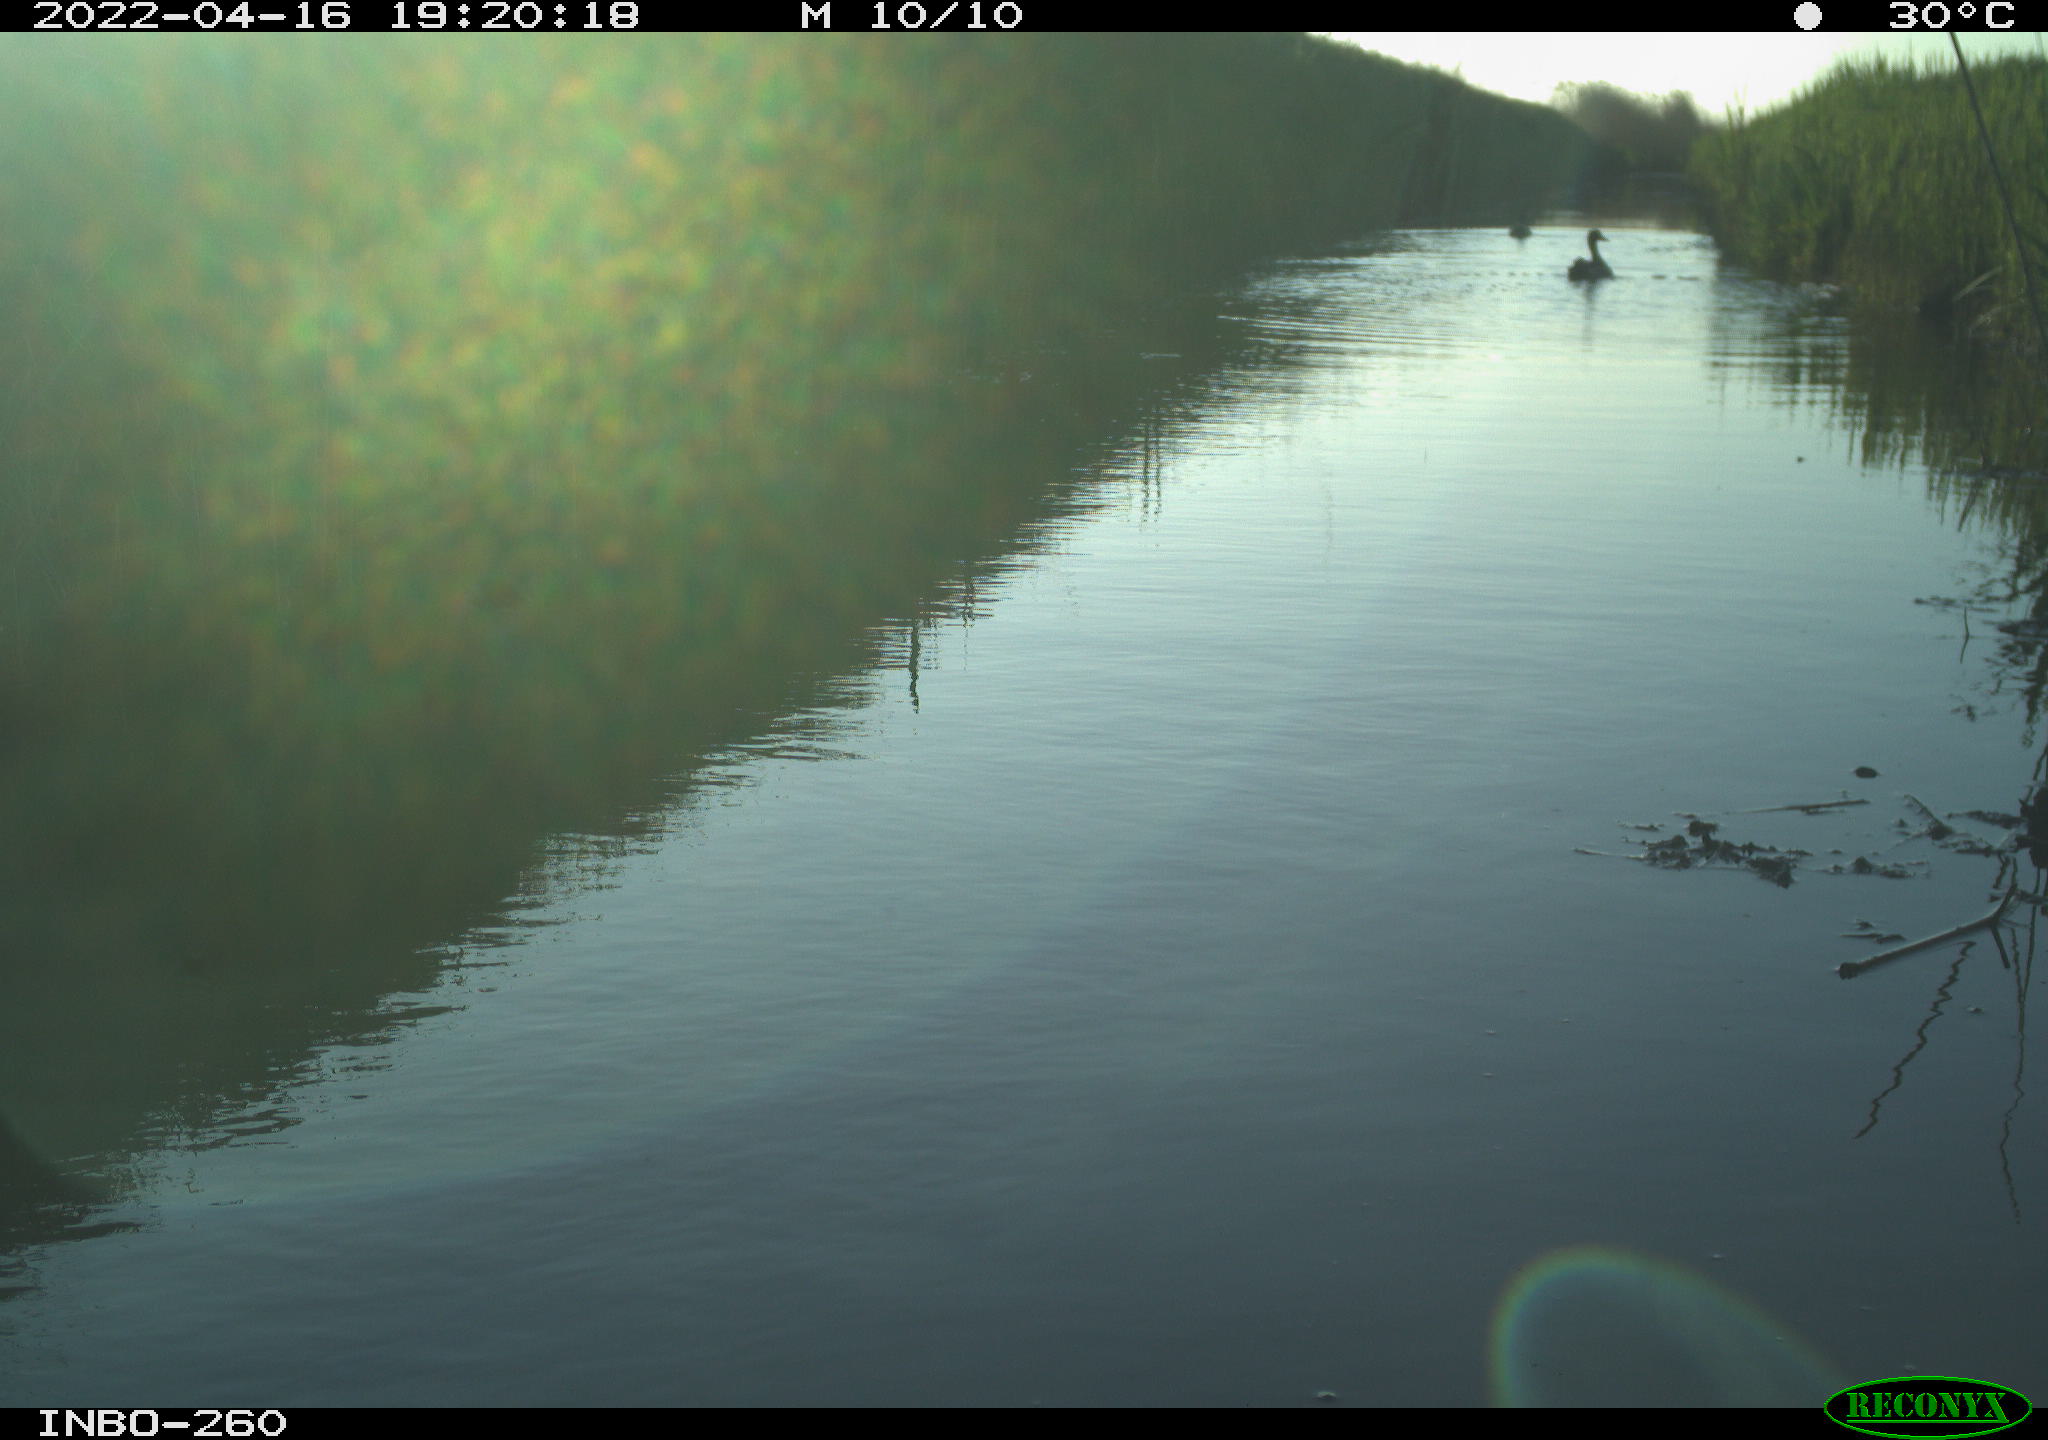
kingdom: Animalia
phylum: Chordata
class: Aves
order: Anseriformes
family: Anatidae
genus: Anas
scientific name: Anas platyrhynchos
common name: Mallard
